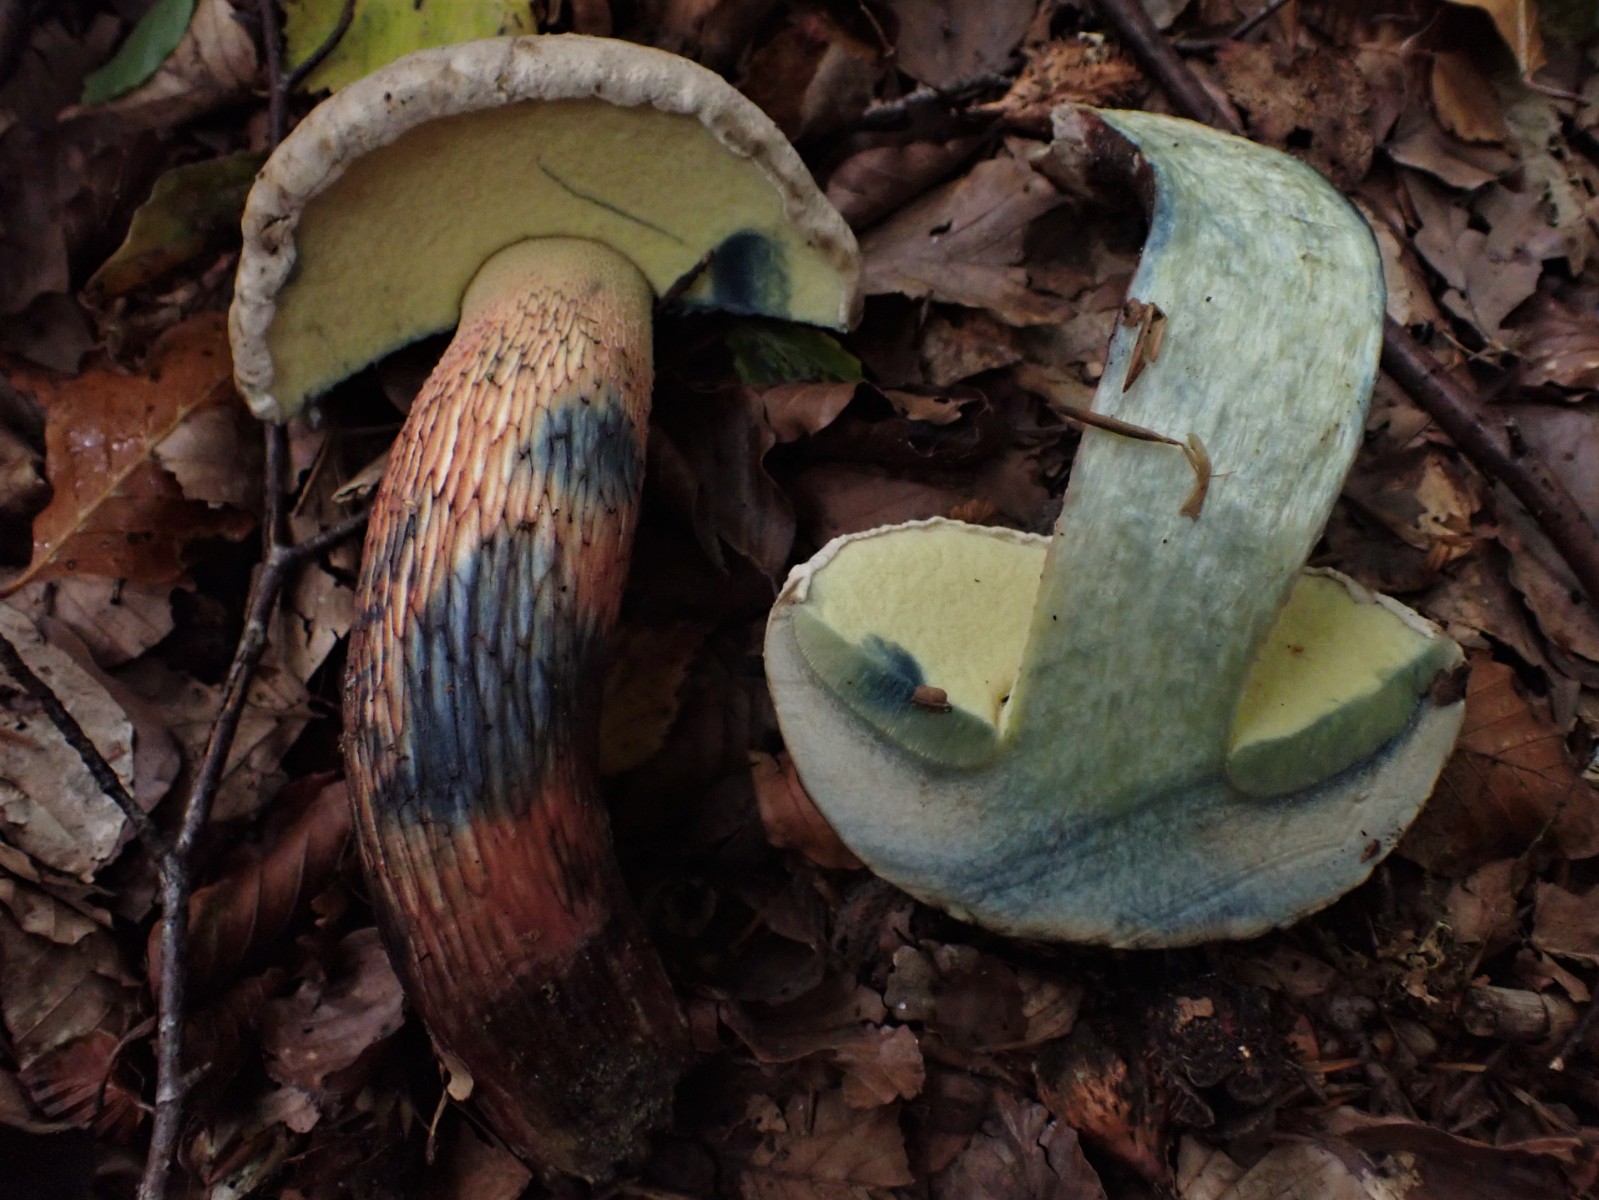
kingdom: Fungi
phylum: Basidiomycota
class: Agaricomycetes
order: Boletales
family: Boletaceae
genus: Caloboletus
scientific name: Caloboletus calopus
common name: skønfodet rørhat
